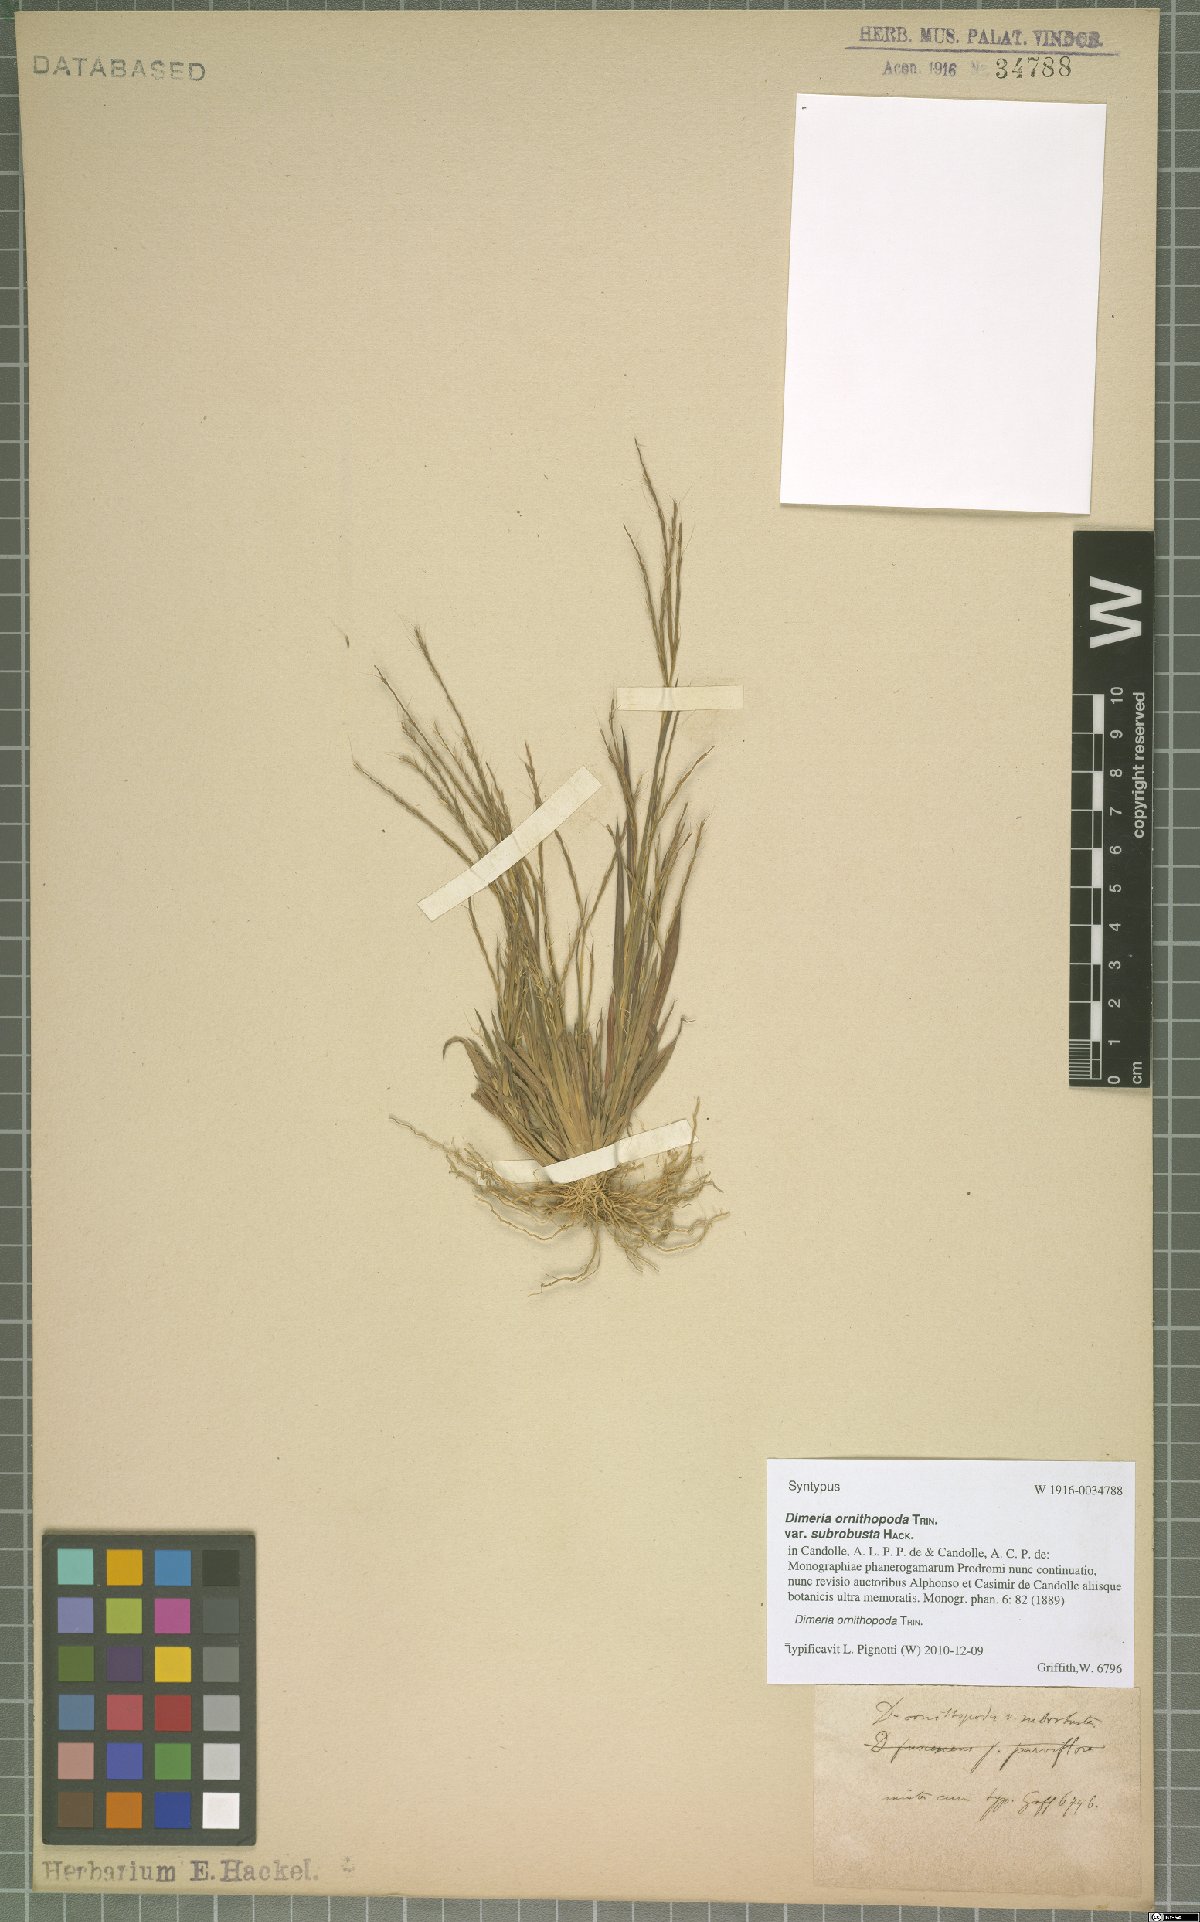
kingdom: Plantae
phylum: Tracheophyta
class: Liliopsida
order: Poales
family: Poaceae
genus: Dimeria
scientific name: Dimeria ornithopoda
